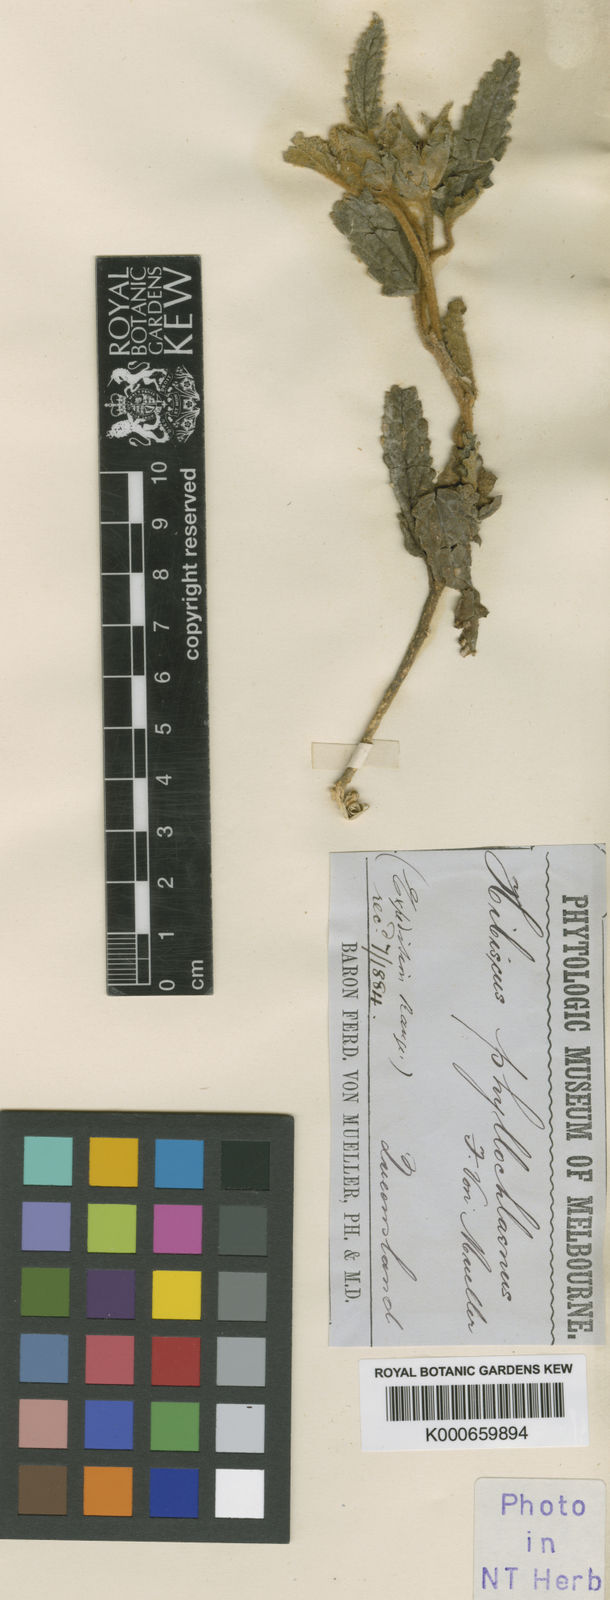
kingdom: Plantae
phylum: Tracheophyta
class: Magnoliopsida
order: Malvales
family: Malvaceae
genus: Hibiscus
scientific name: Hibiscus
